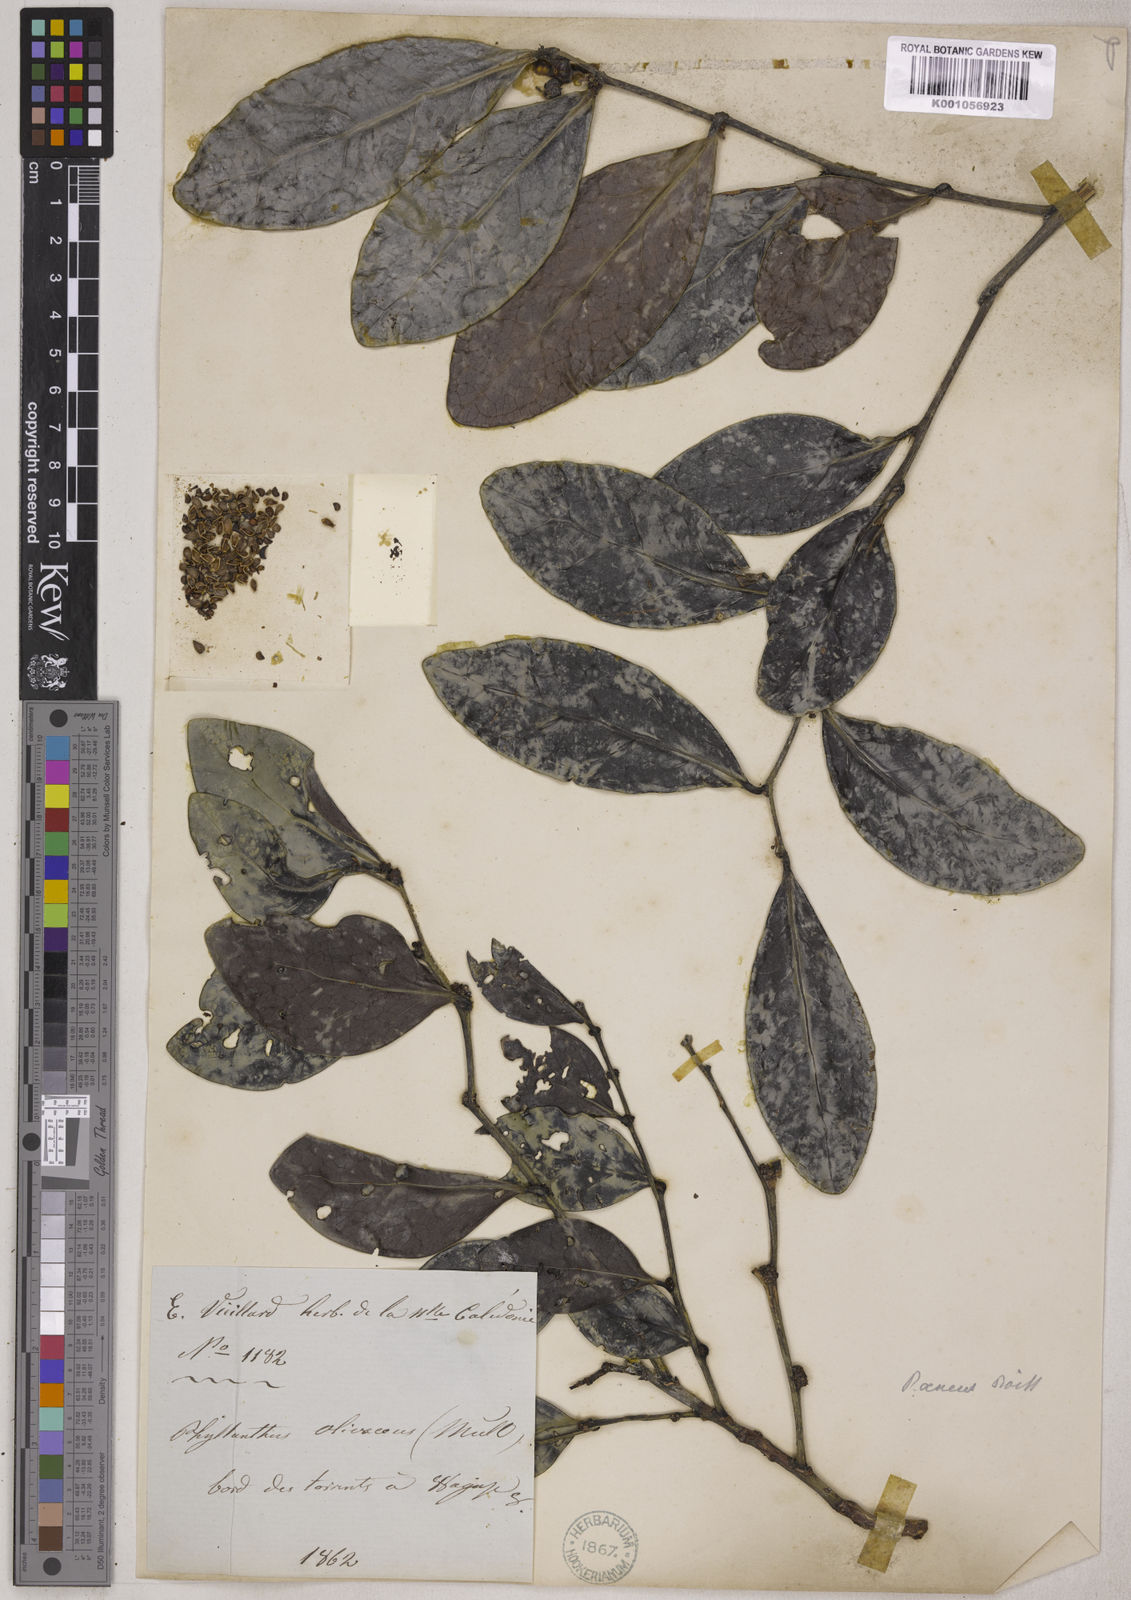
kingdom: Plantae
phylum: Tracheophyta
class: Magnoliopsida
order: Malpighiales
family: Phyllanthaceae
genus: Phyllanthus
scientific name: Phyllanthus aeneus
